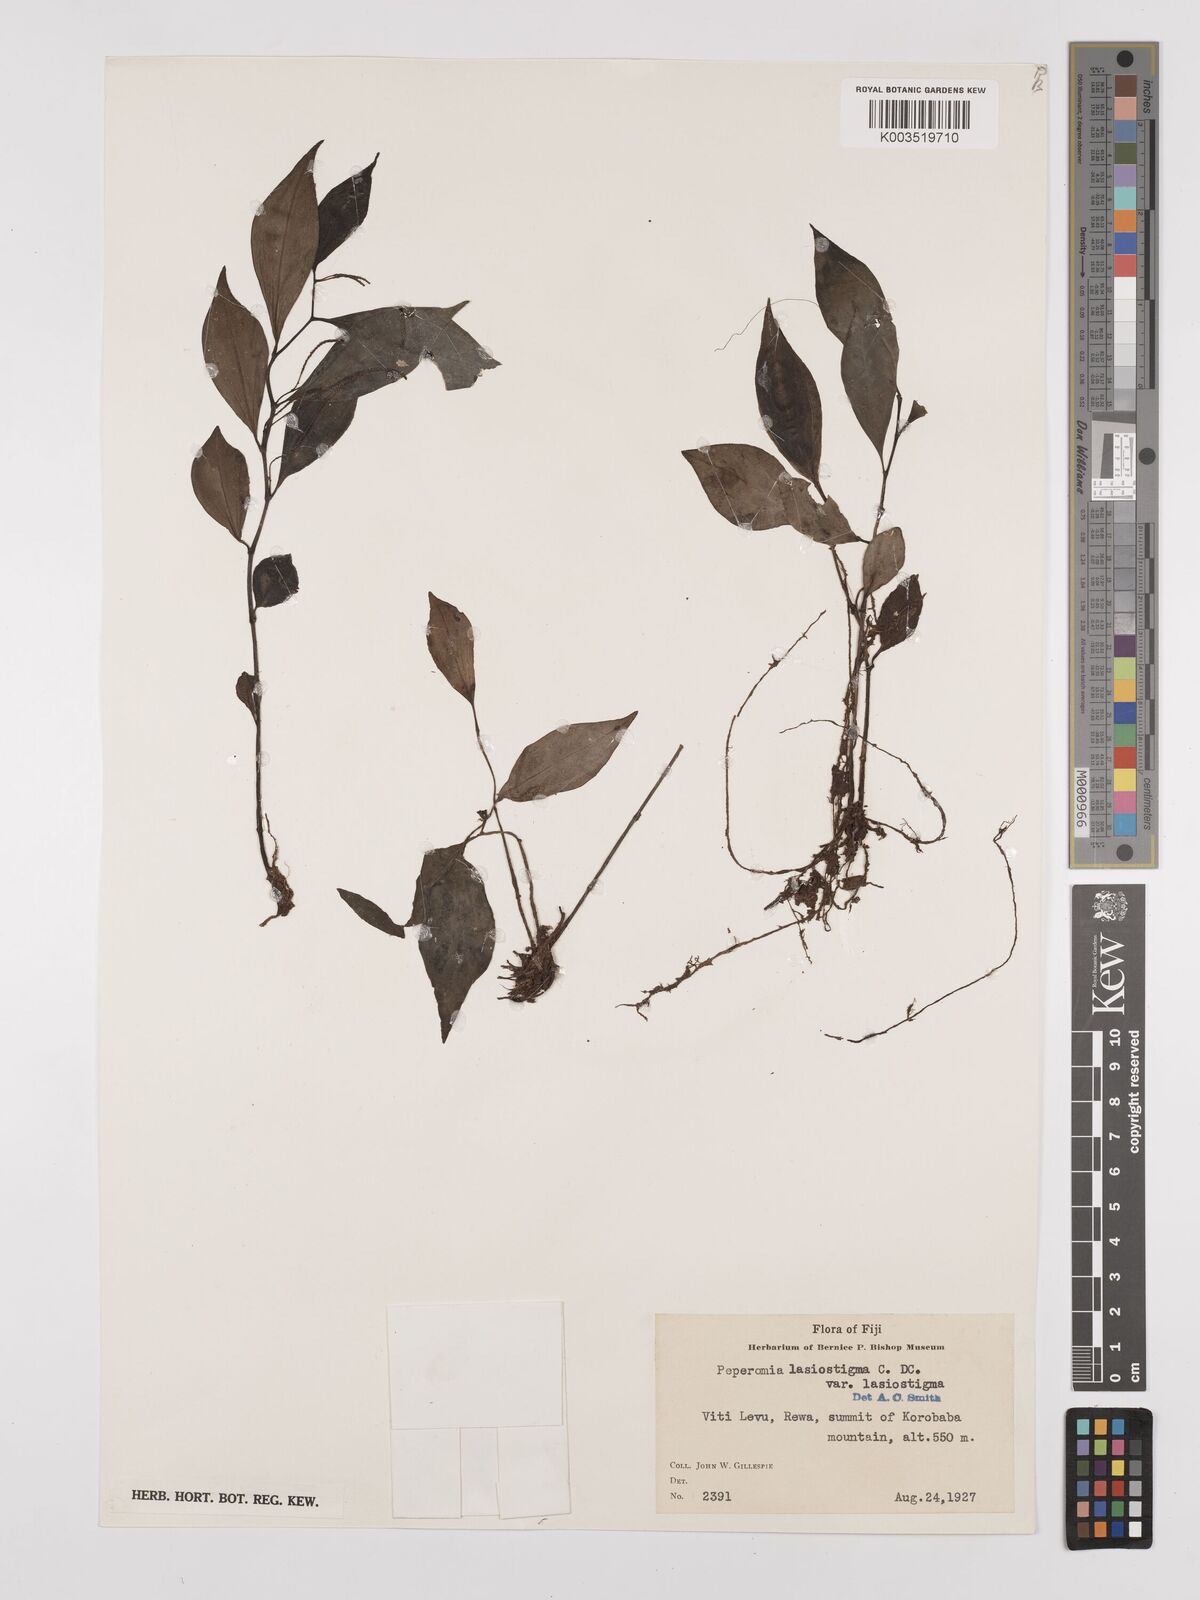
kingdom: Plantae
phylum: Tracheophyta
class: Magnoliopsida
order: Piperales
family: Piperaceae
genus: Peperomia
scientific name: Peperomia lasiostigma
